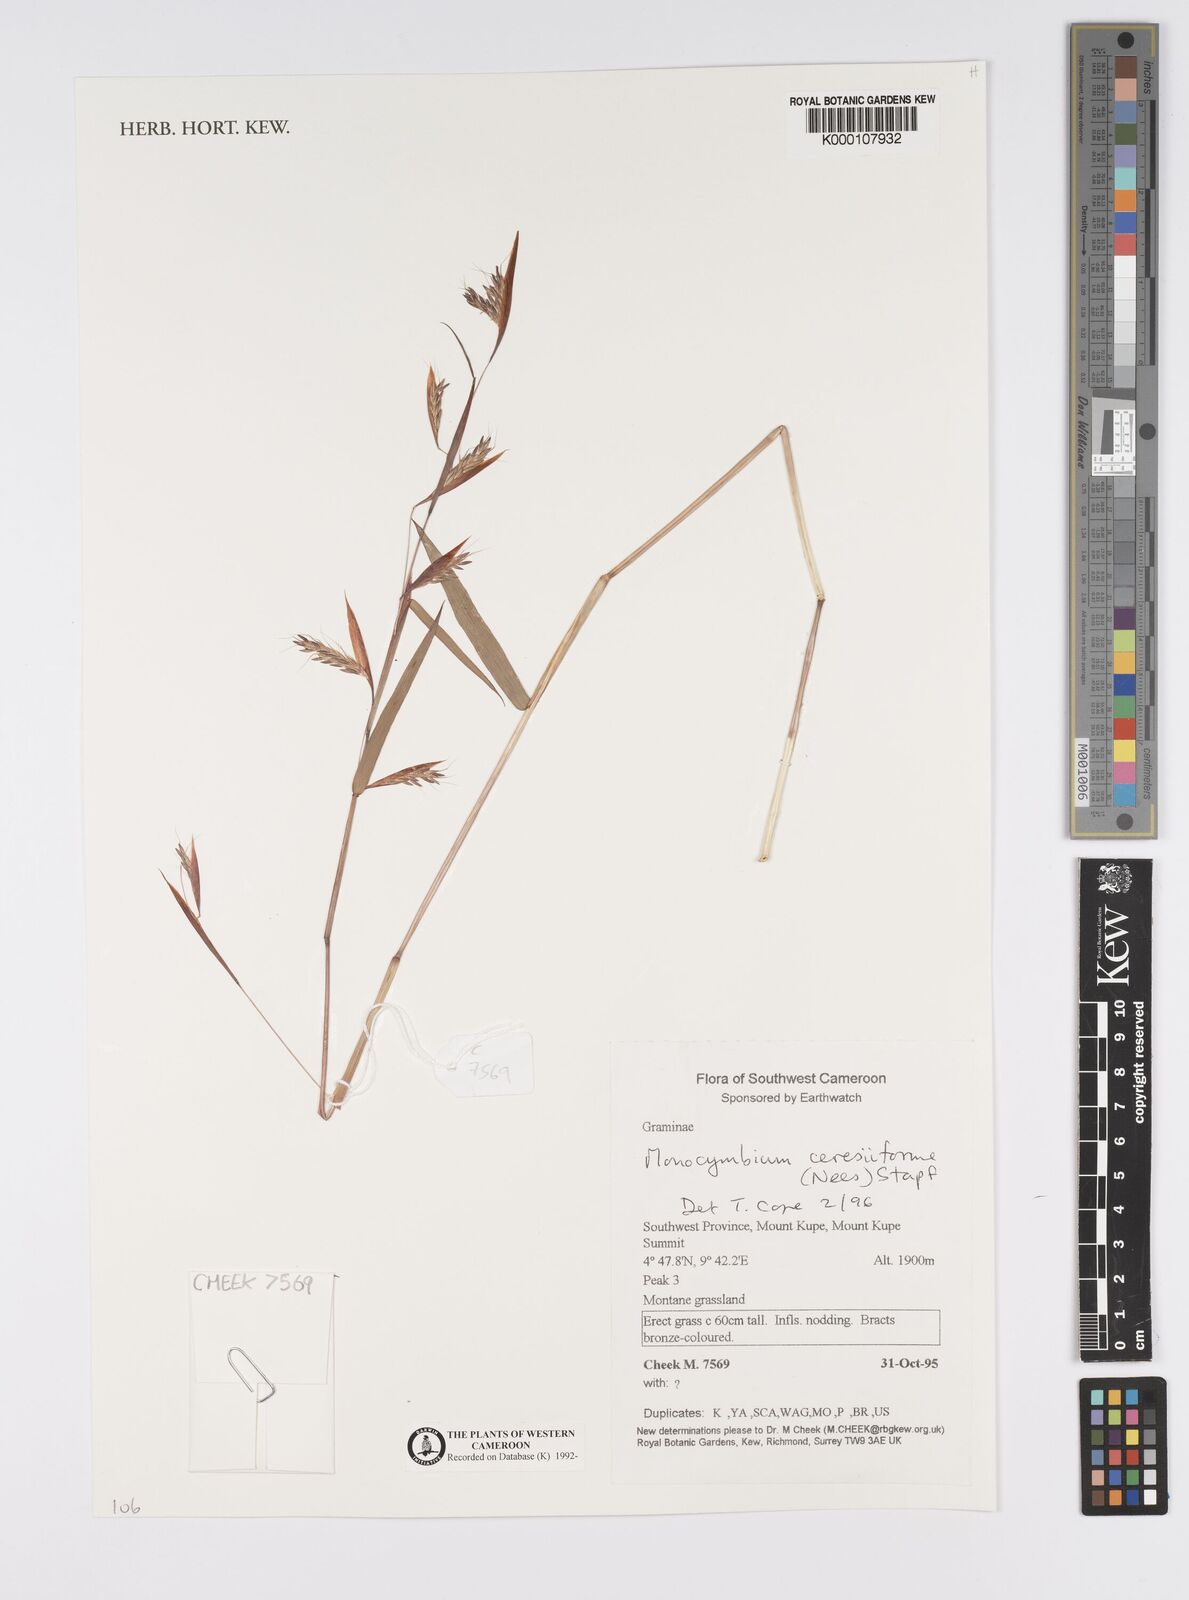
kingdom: Plantae
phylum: Tracheophyta
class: Liliopsida
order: Poales
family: Poaceae
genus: Monocymbium
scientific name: Monocymbium ceresiiforme
